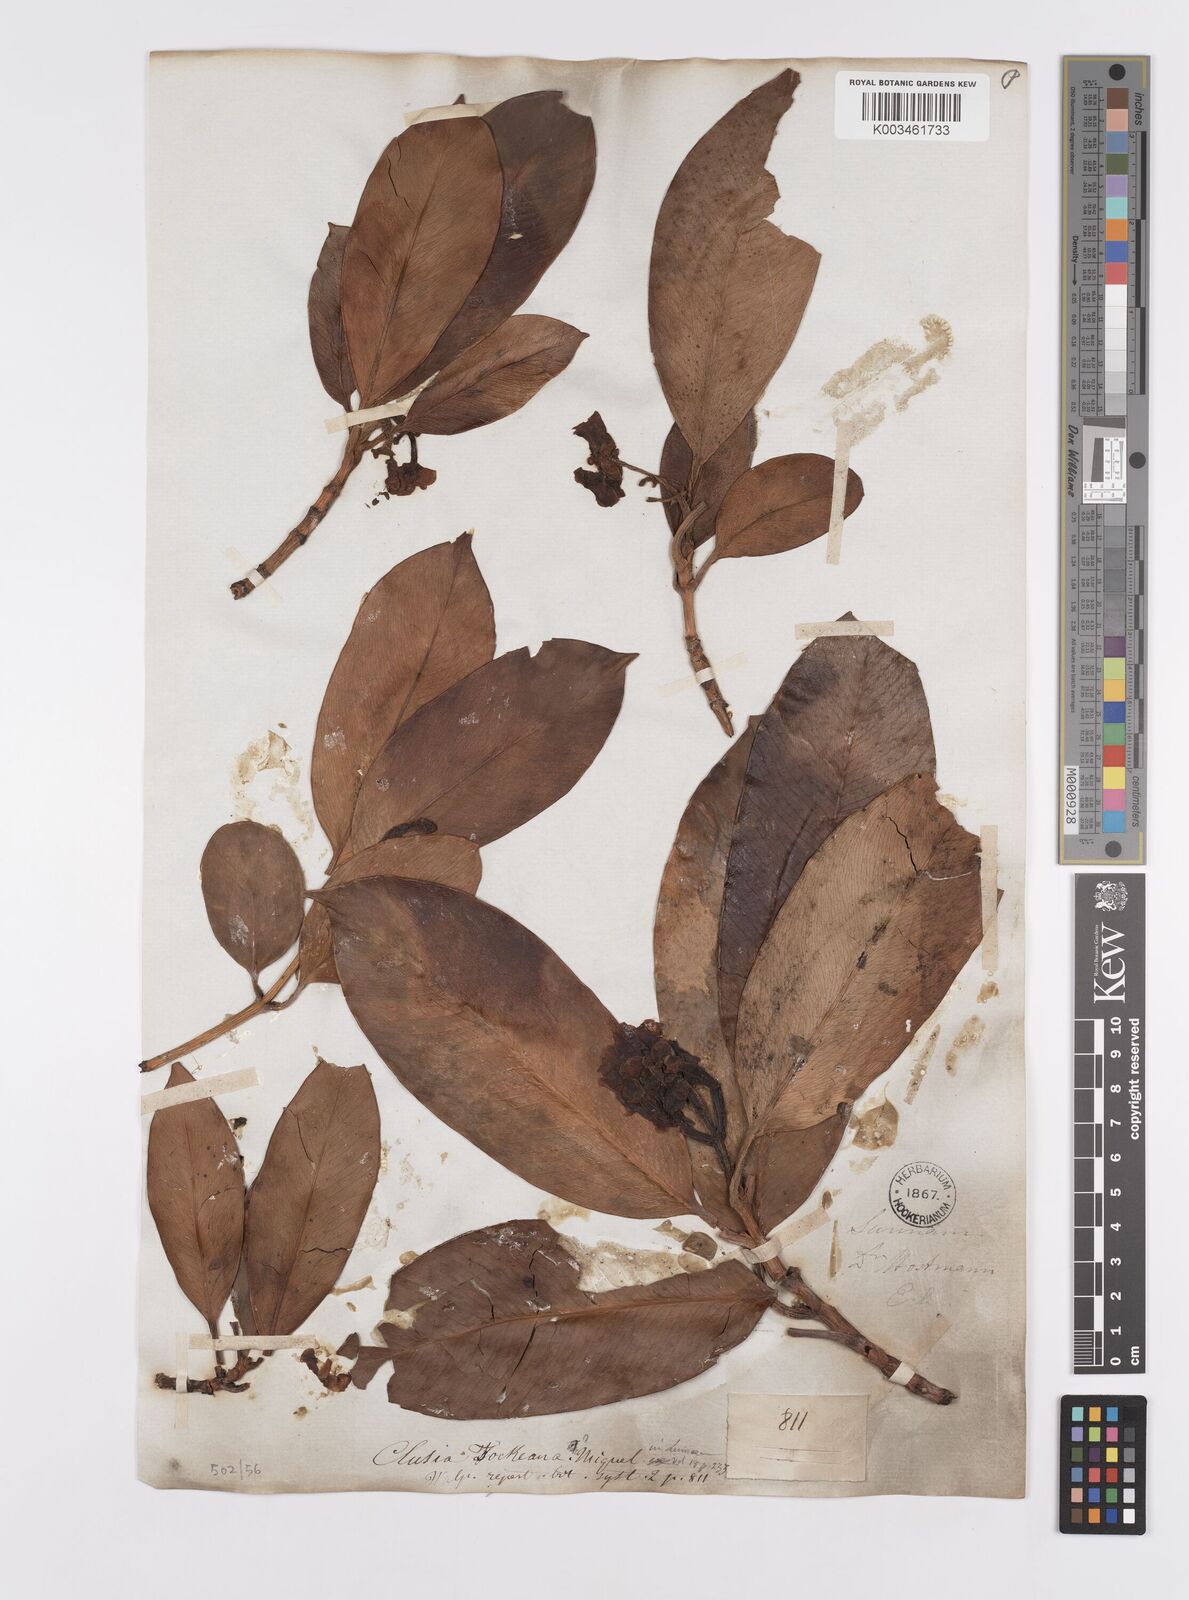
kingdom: Plantae
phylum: Tracheophyta
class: Magnoliopsida
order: Malpighiales
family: Clusiaceae
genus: Clusia
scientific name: Clusia fockeana
